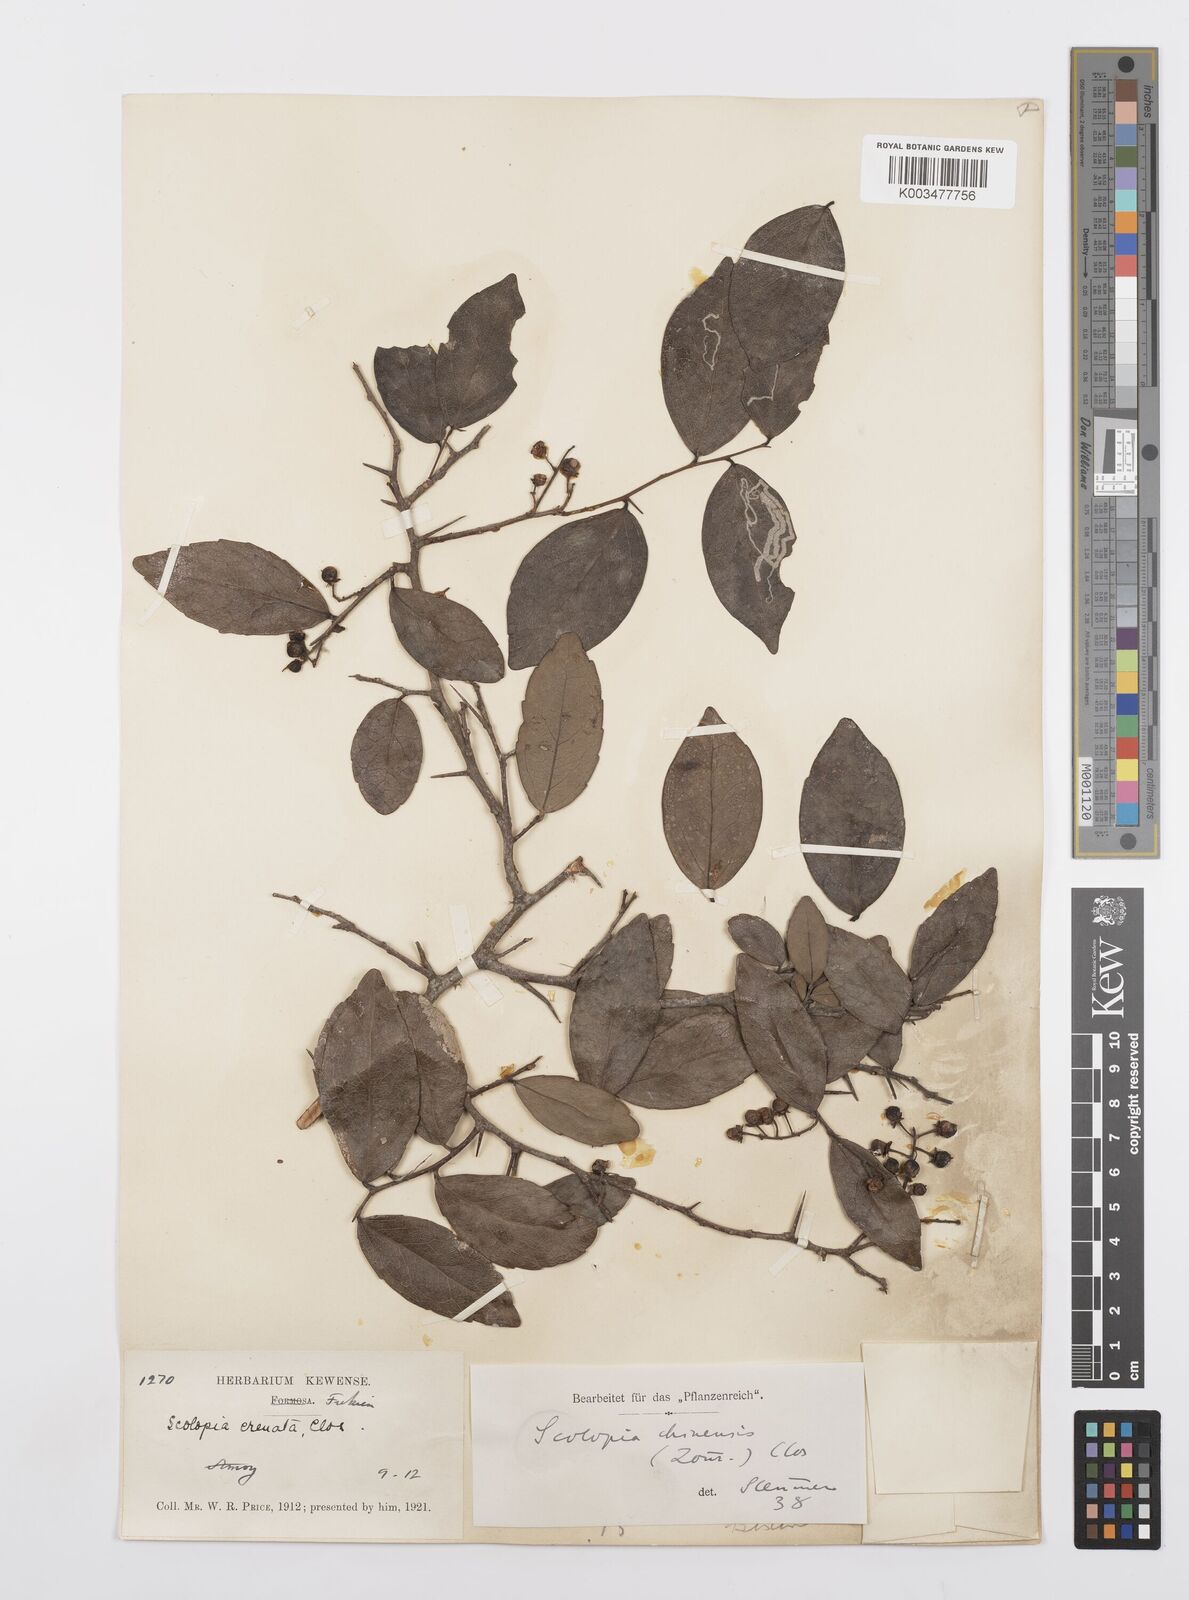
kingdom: Plantae
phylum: Tracheophyta
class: Magnoliopsida
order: Malpighiales
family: Salicaceae
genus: Scolopia
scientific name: Scolopia chinensis
